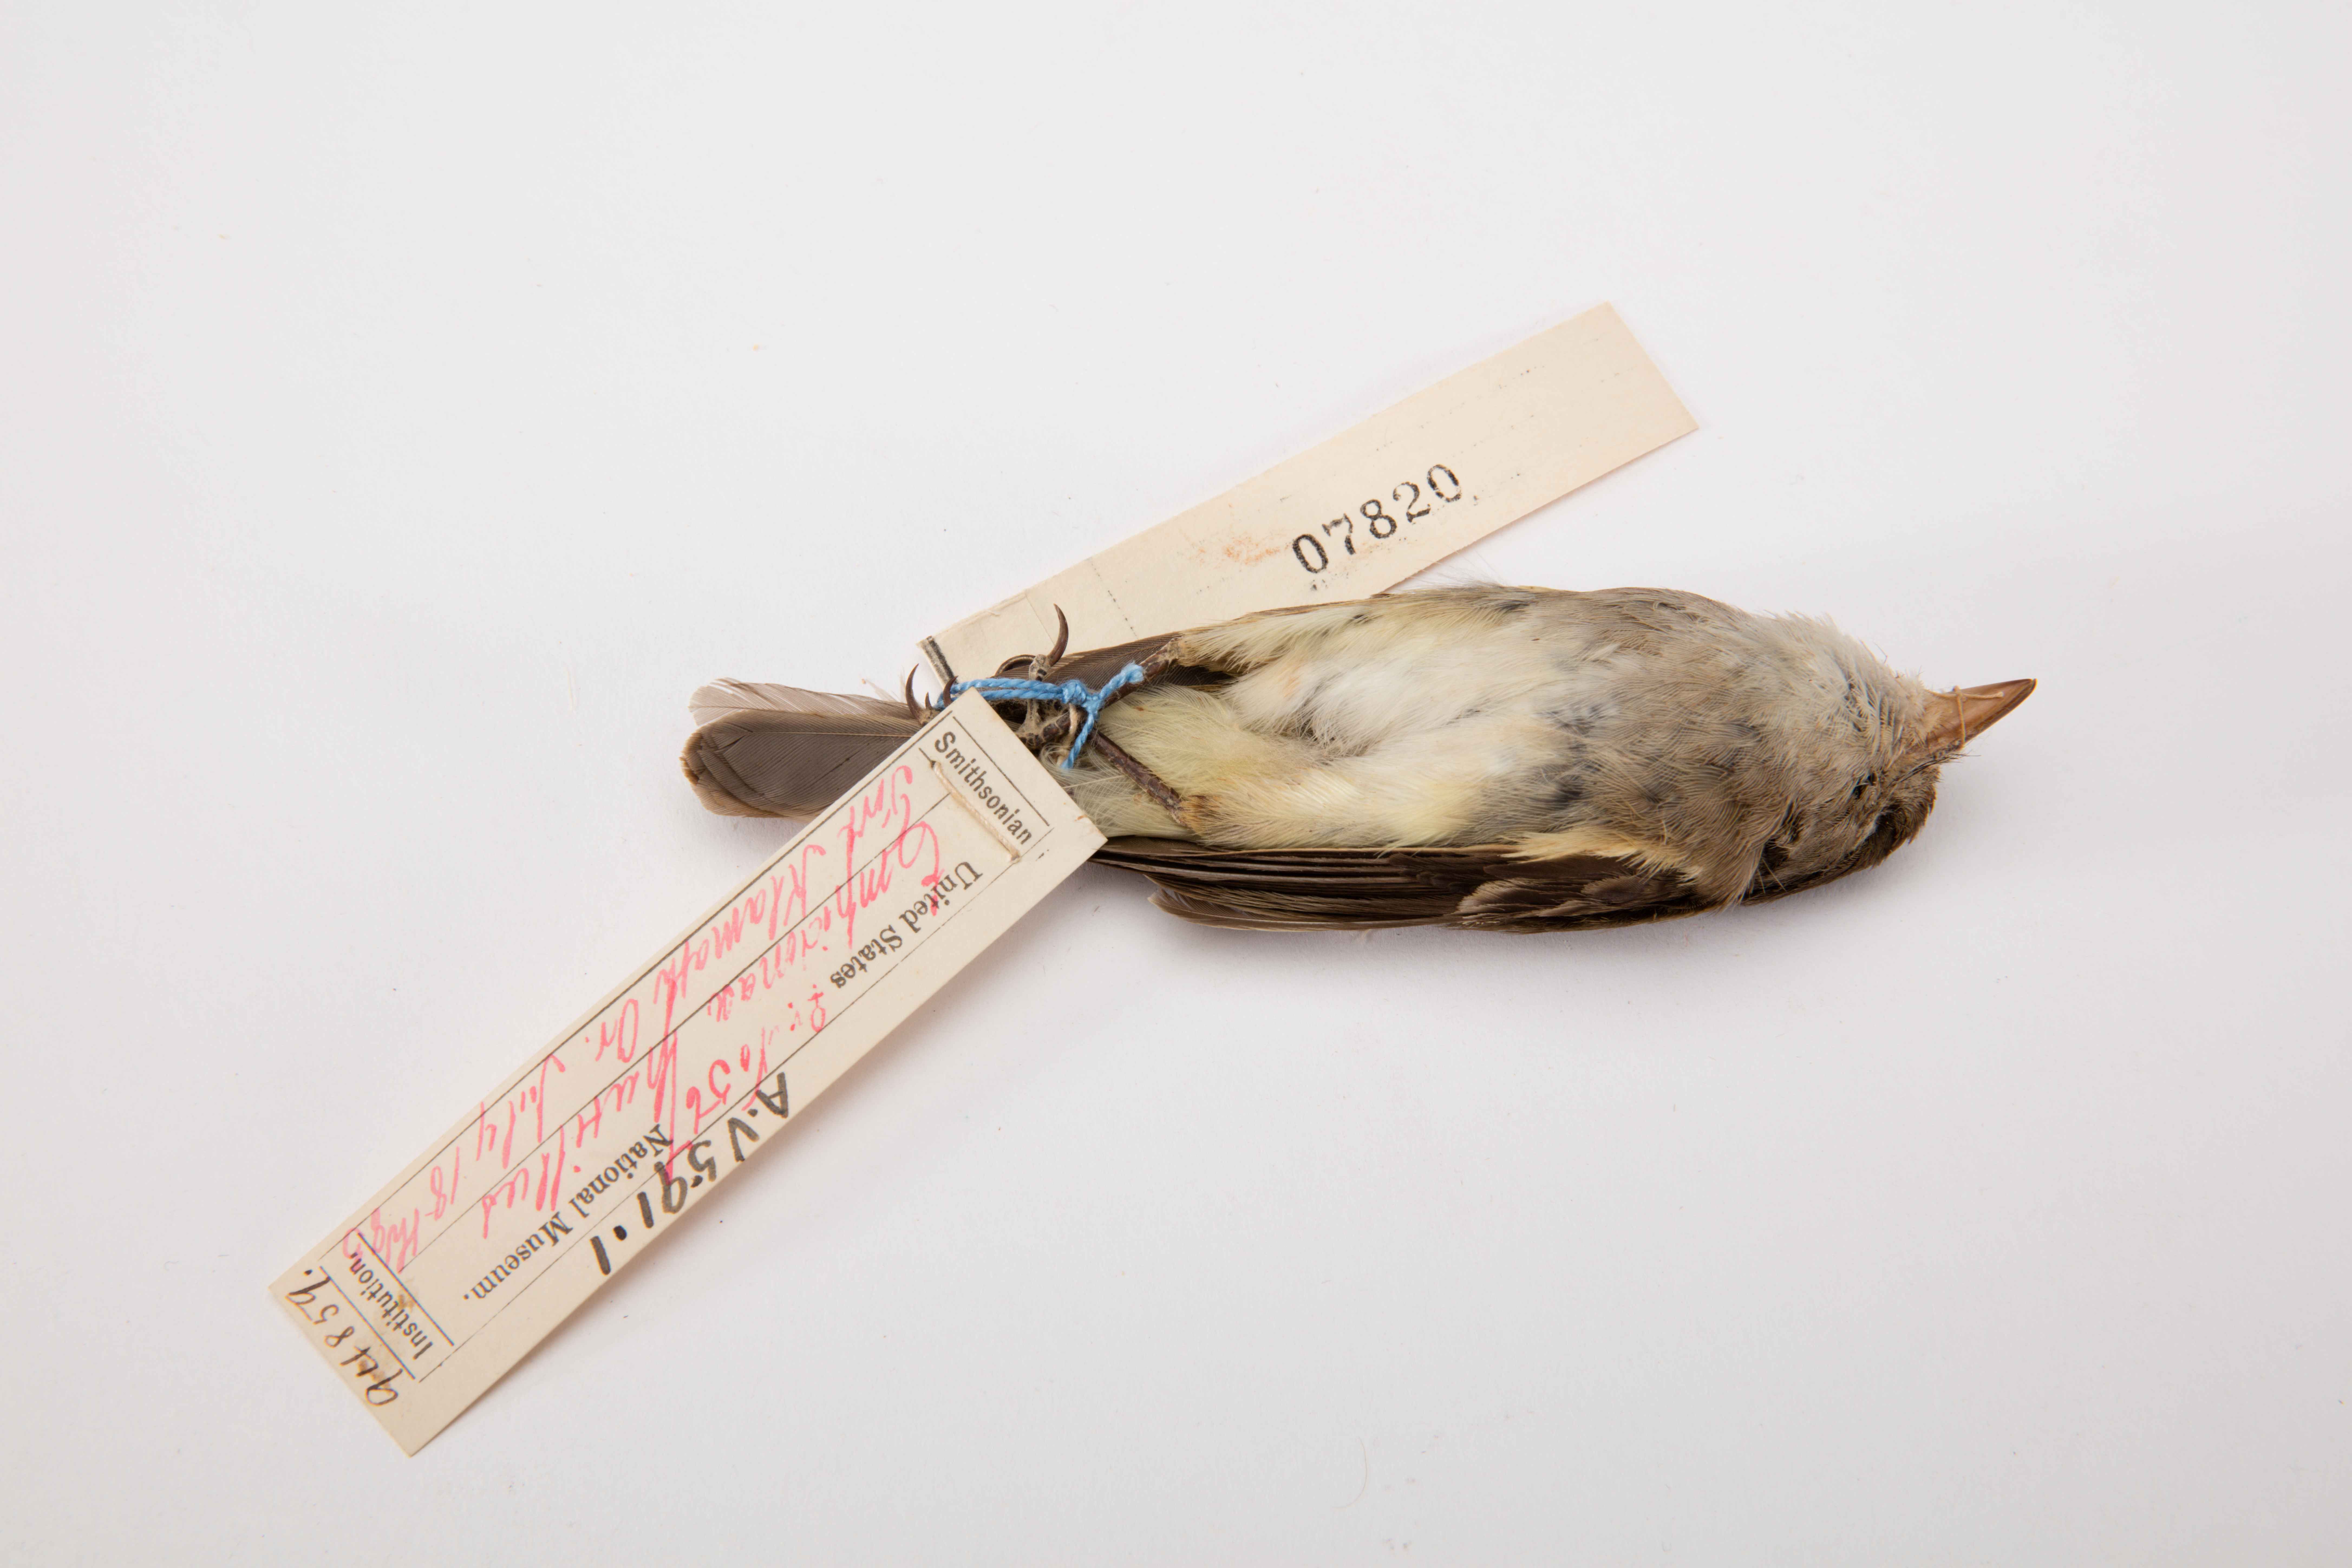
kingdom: Animalia
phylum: Chordata
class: Aves
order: Passeriformes
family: Tyrannidae
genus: Empidonax
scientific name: Empidonax oberholseri
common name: Dusky flycatcher
